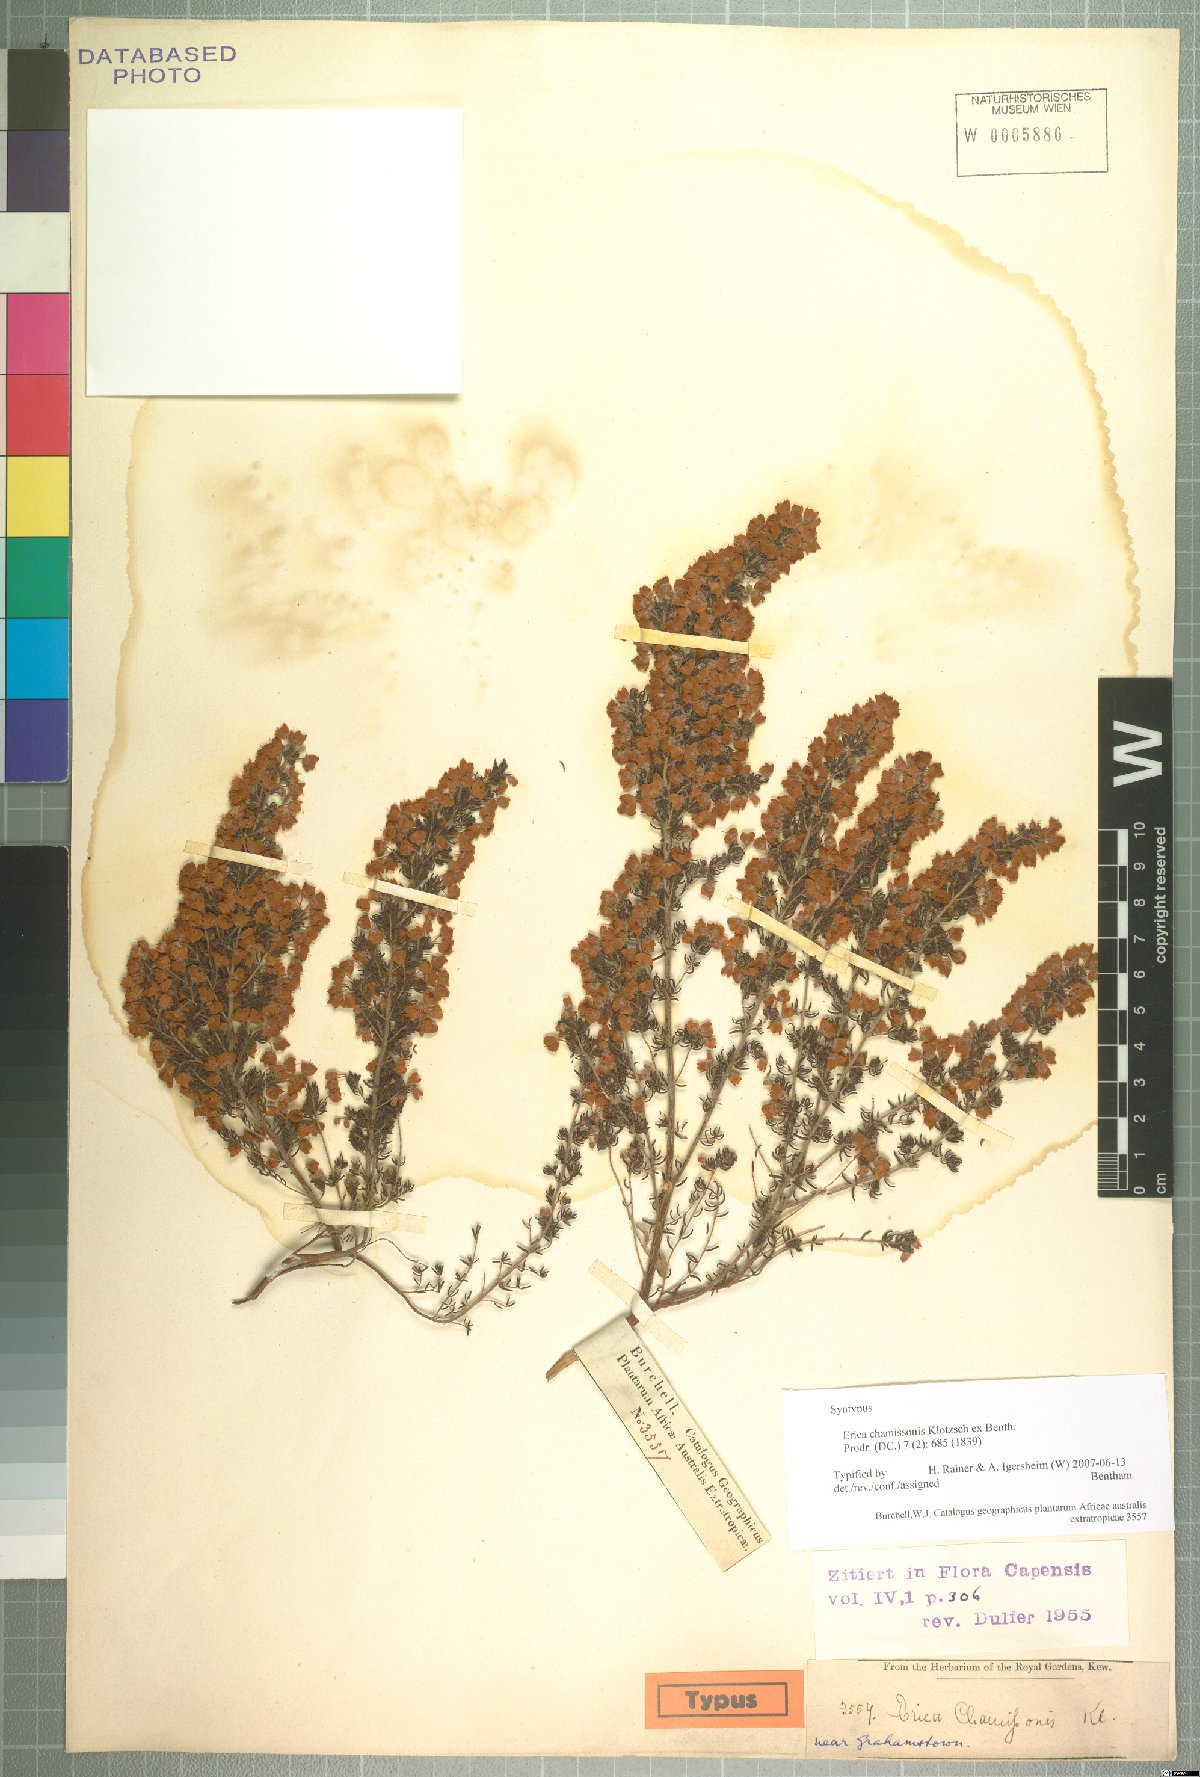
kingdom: Plantae
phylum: Tracheophyta
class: Magnoliopsida
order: Ericales
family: Ericaceae
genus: Erica
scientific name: Erica chamissonis
